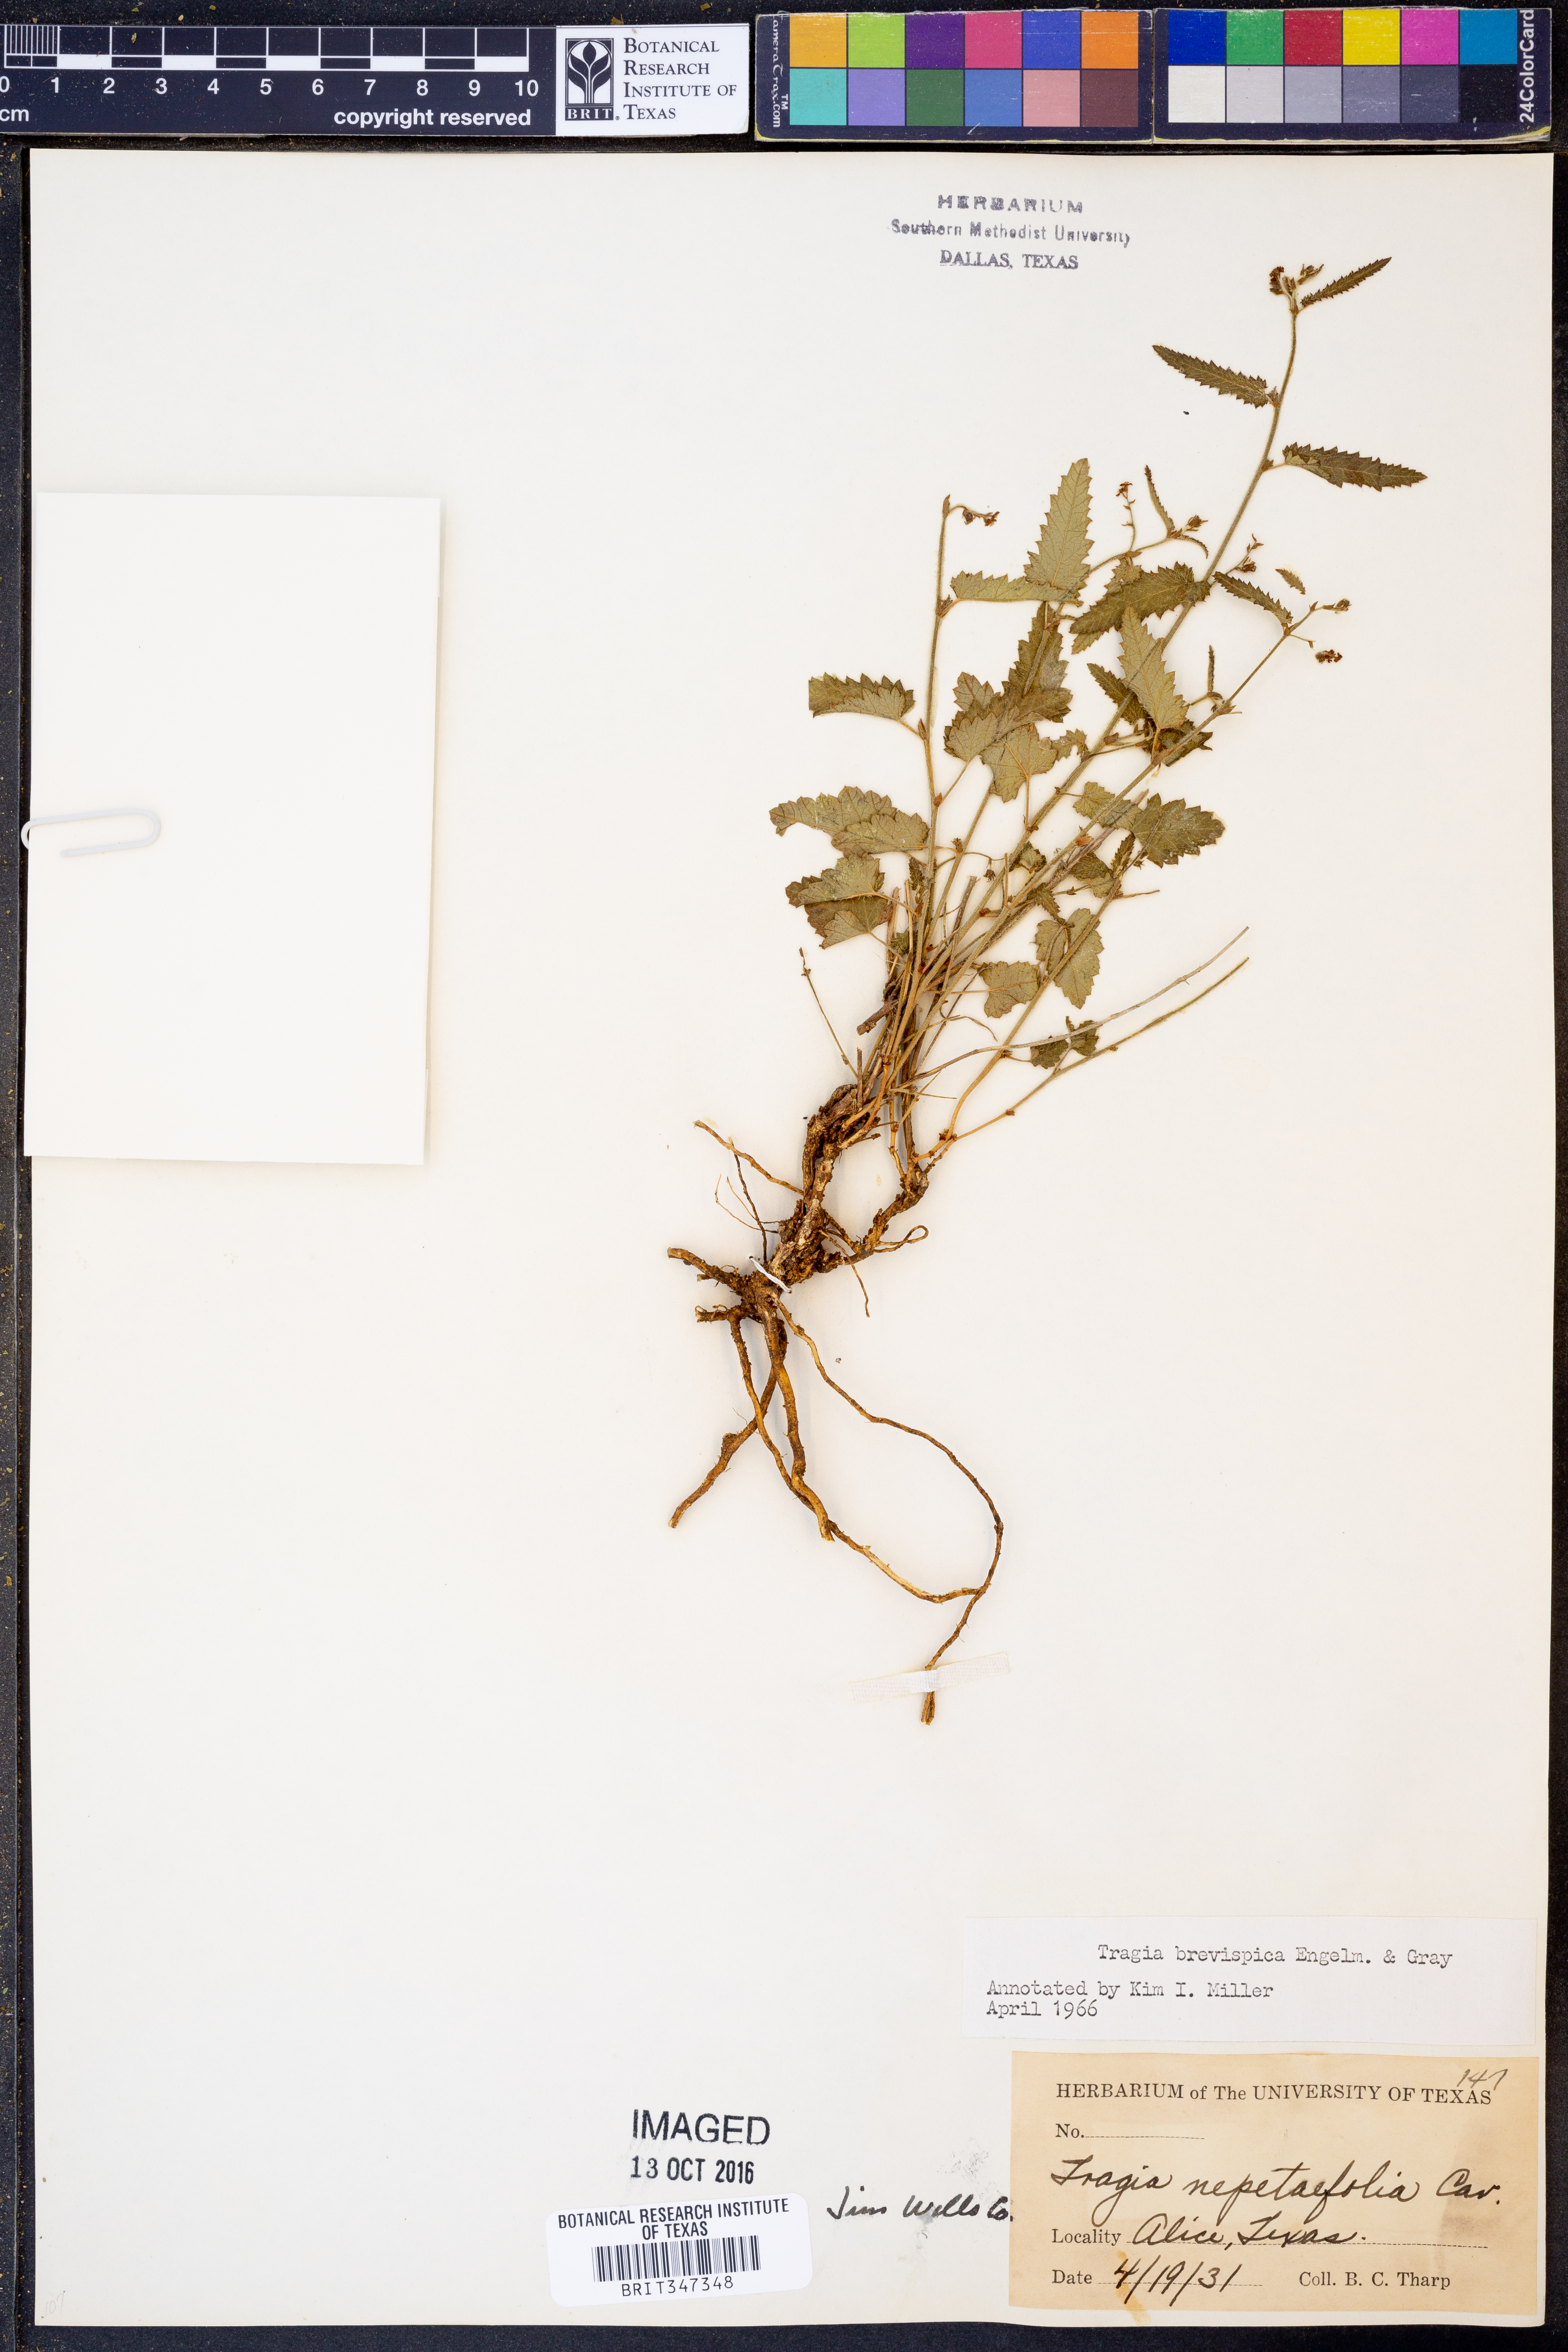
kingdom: Plantae
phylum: Tracheophyta
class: Magnoliopsida
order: Malpighiales
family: Euphorbiaceae
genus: Tragia
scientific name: Tragia brevispica
